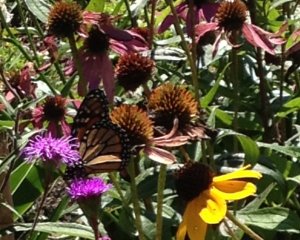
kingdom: Animalia
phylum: Arthropoda
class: Insecta
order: Lepidoptera
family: Nymphalidae
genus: Danaus
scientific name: Danaus plexippus
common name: Monarch
